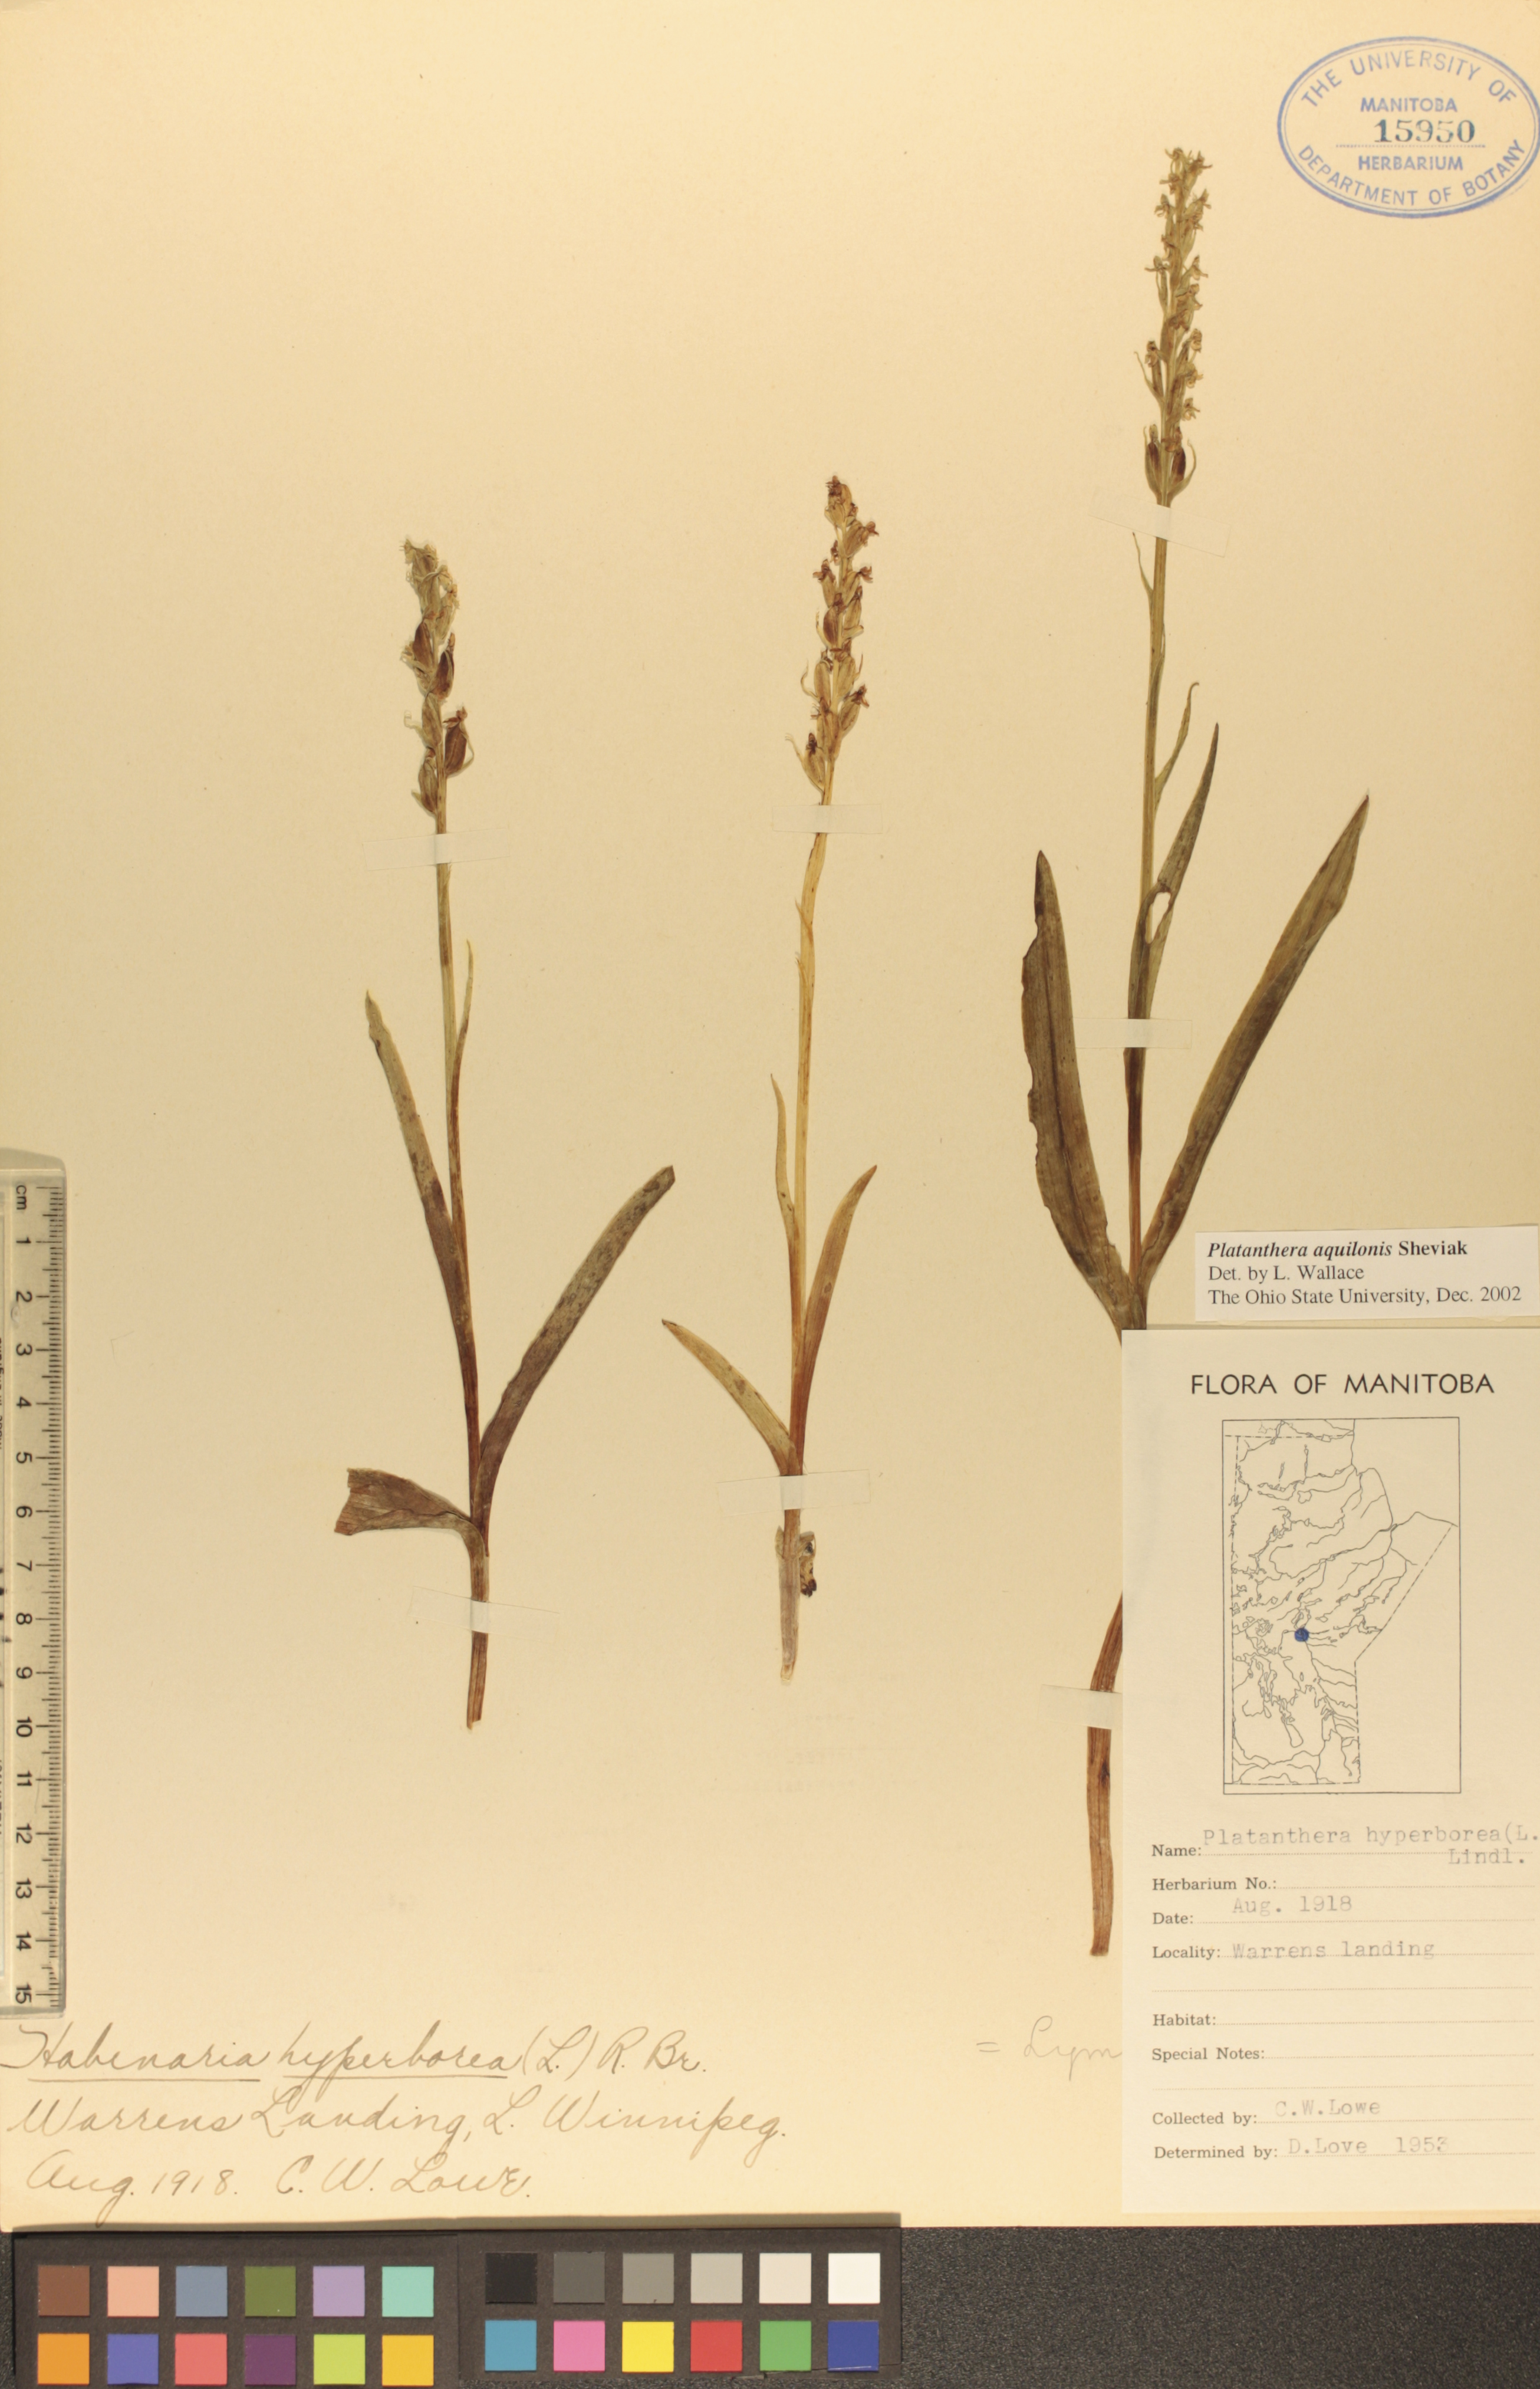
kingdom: Plantae
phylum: Tracheophyta
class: Liliopsida
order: Asparagales
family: Orchidaceae
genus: Platanthera
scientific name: Platanthera aquilonis
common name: Northern green orchid
